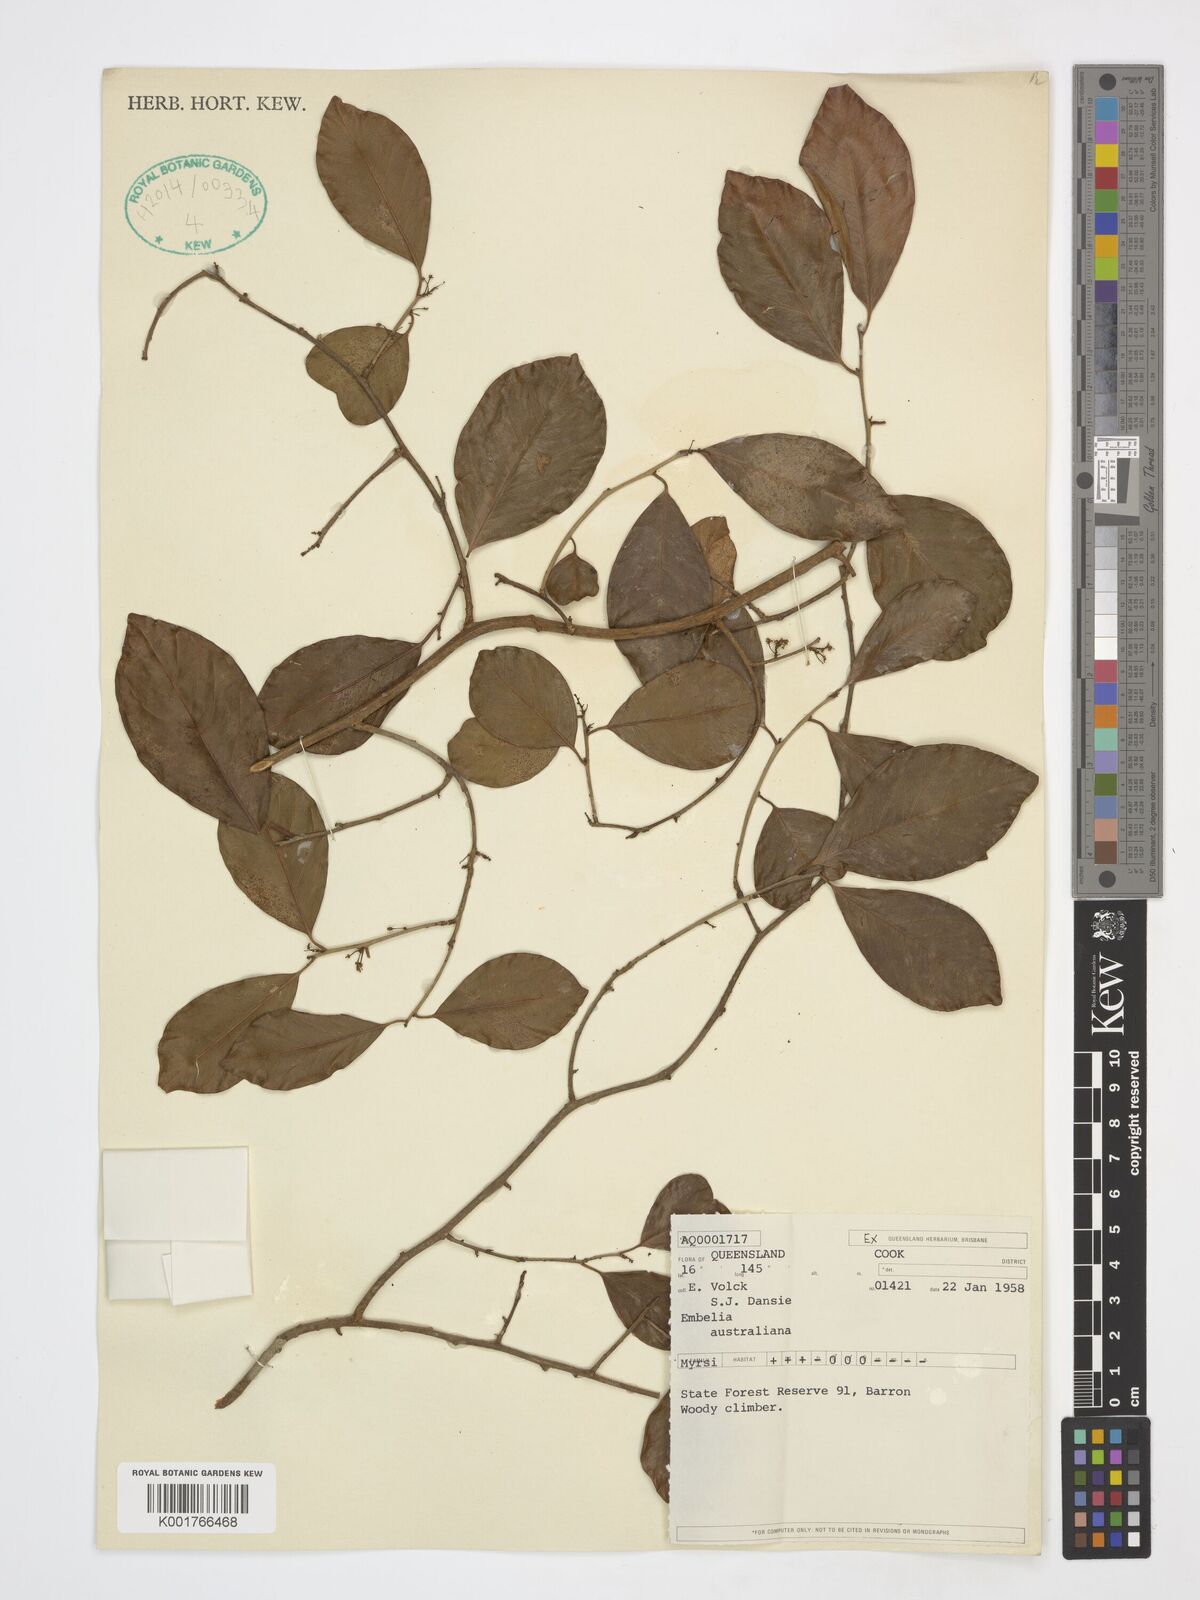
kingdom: Plantae
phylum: Tracheophyta
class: Magnoliopsida
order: Ericales
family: Primulaceae
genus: Embelia
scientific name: Embelia australiana
